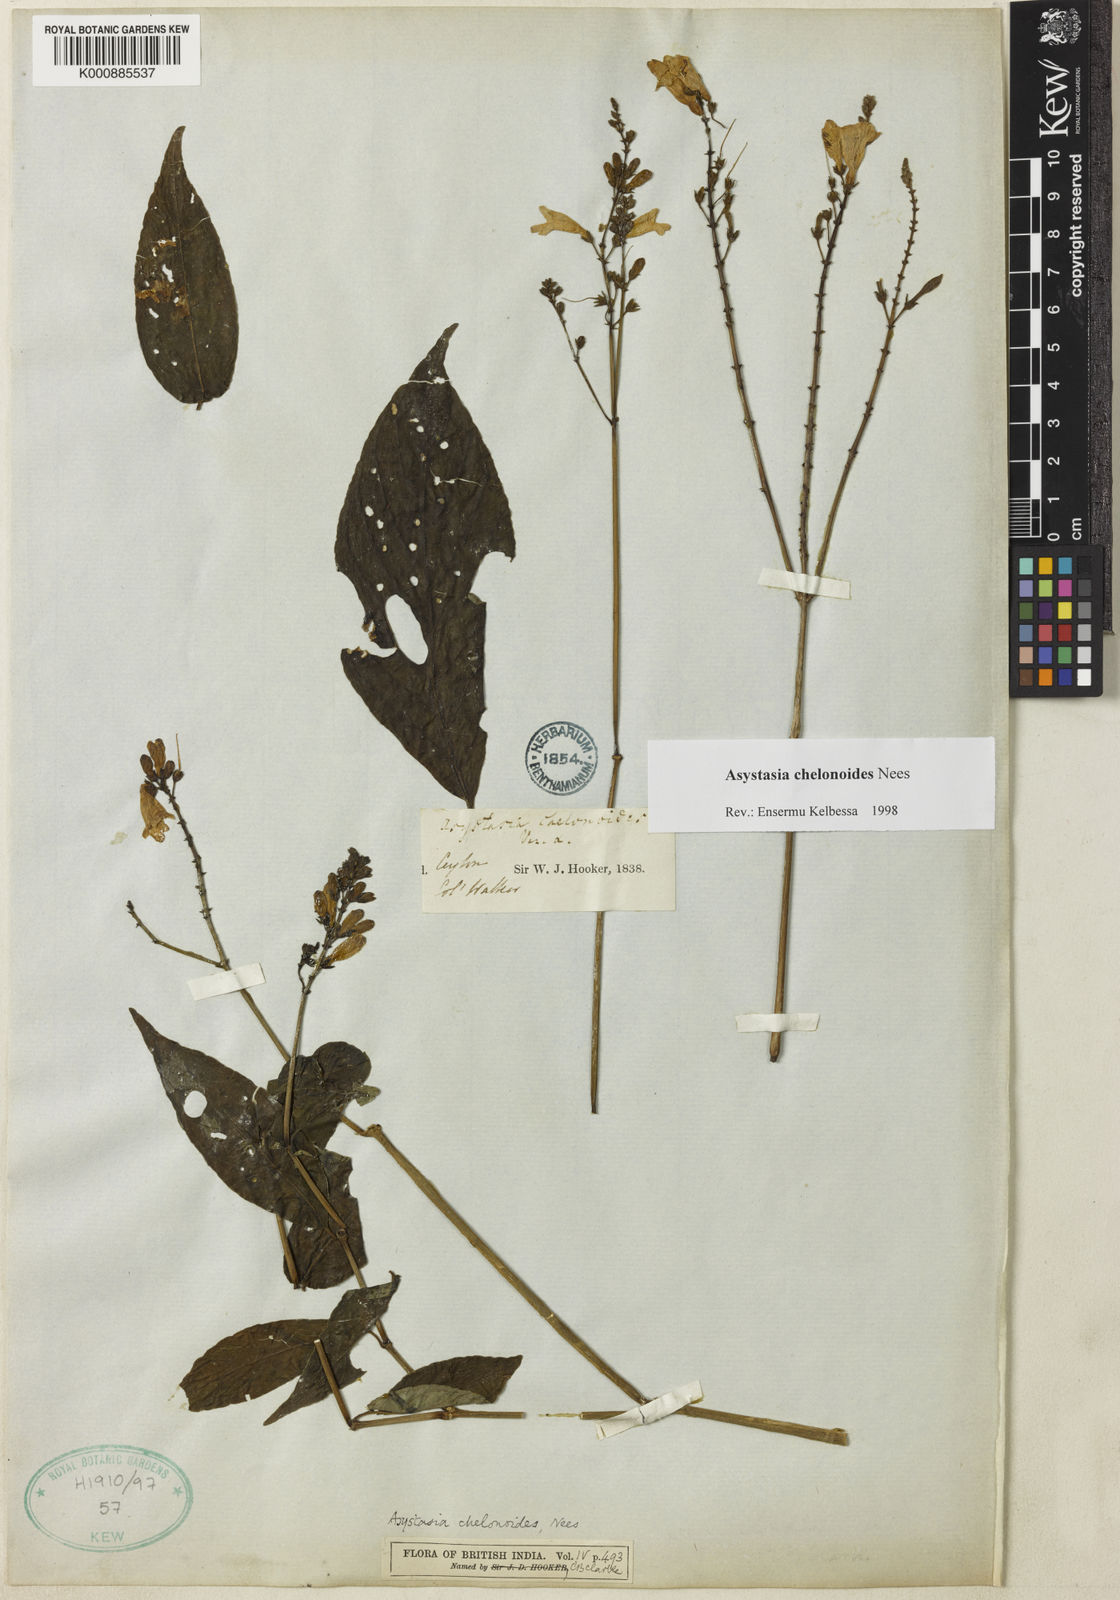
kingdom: Plantae
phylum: Tracheophyta
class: Magnoliopsida
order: Lamiales
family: Acanthaceae
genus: Asystasia
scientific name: Asystasia chelonoides
